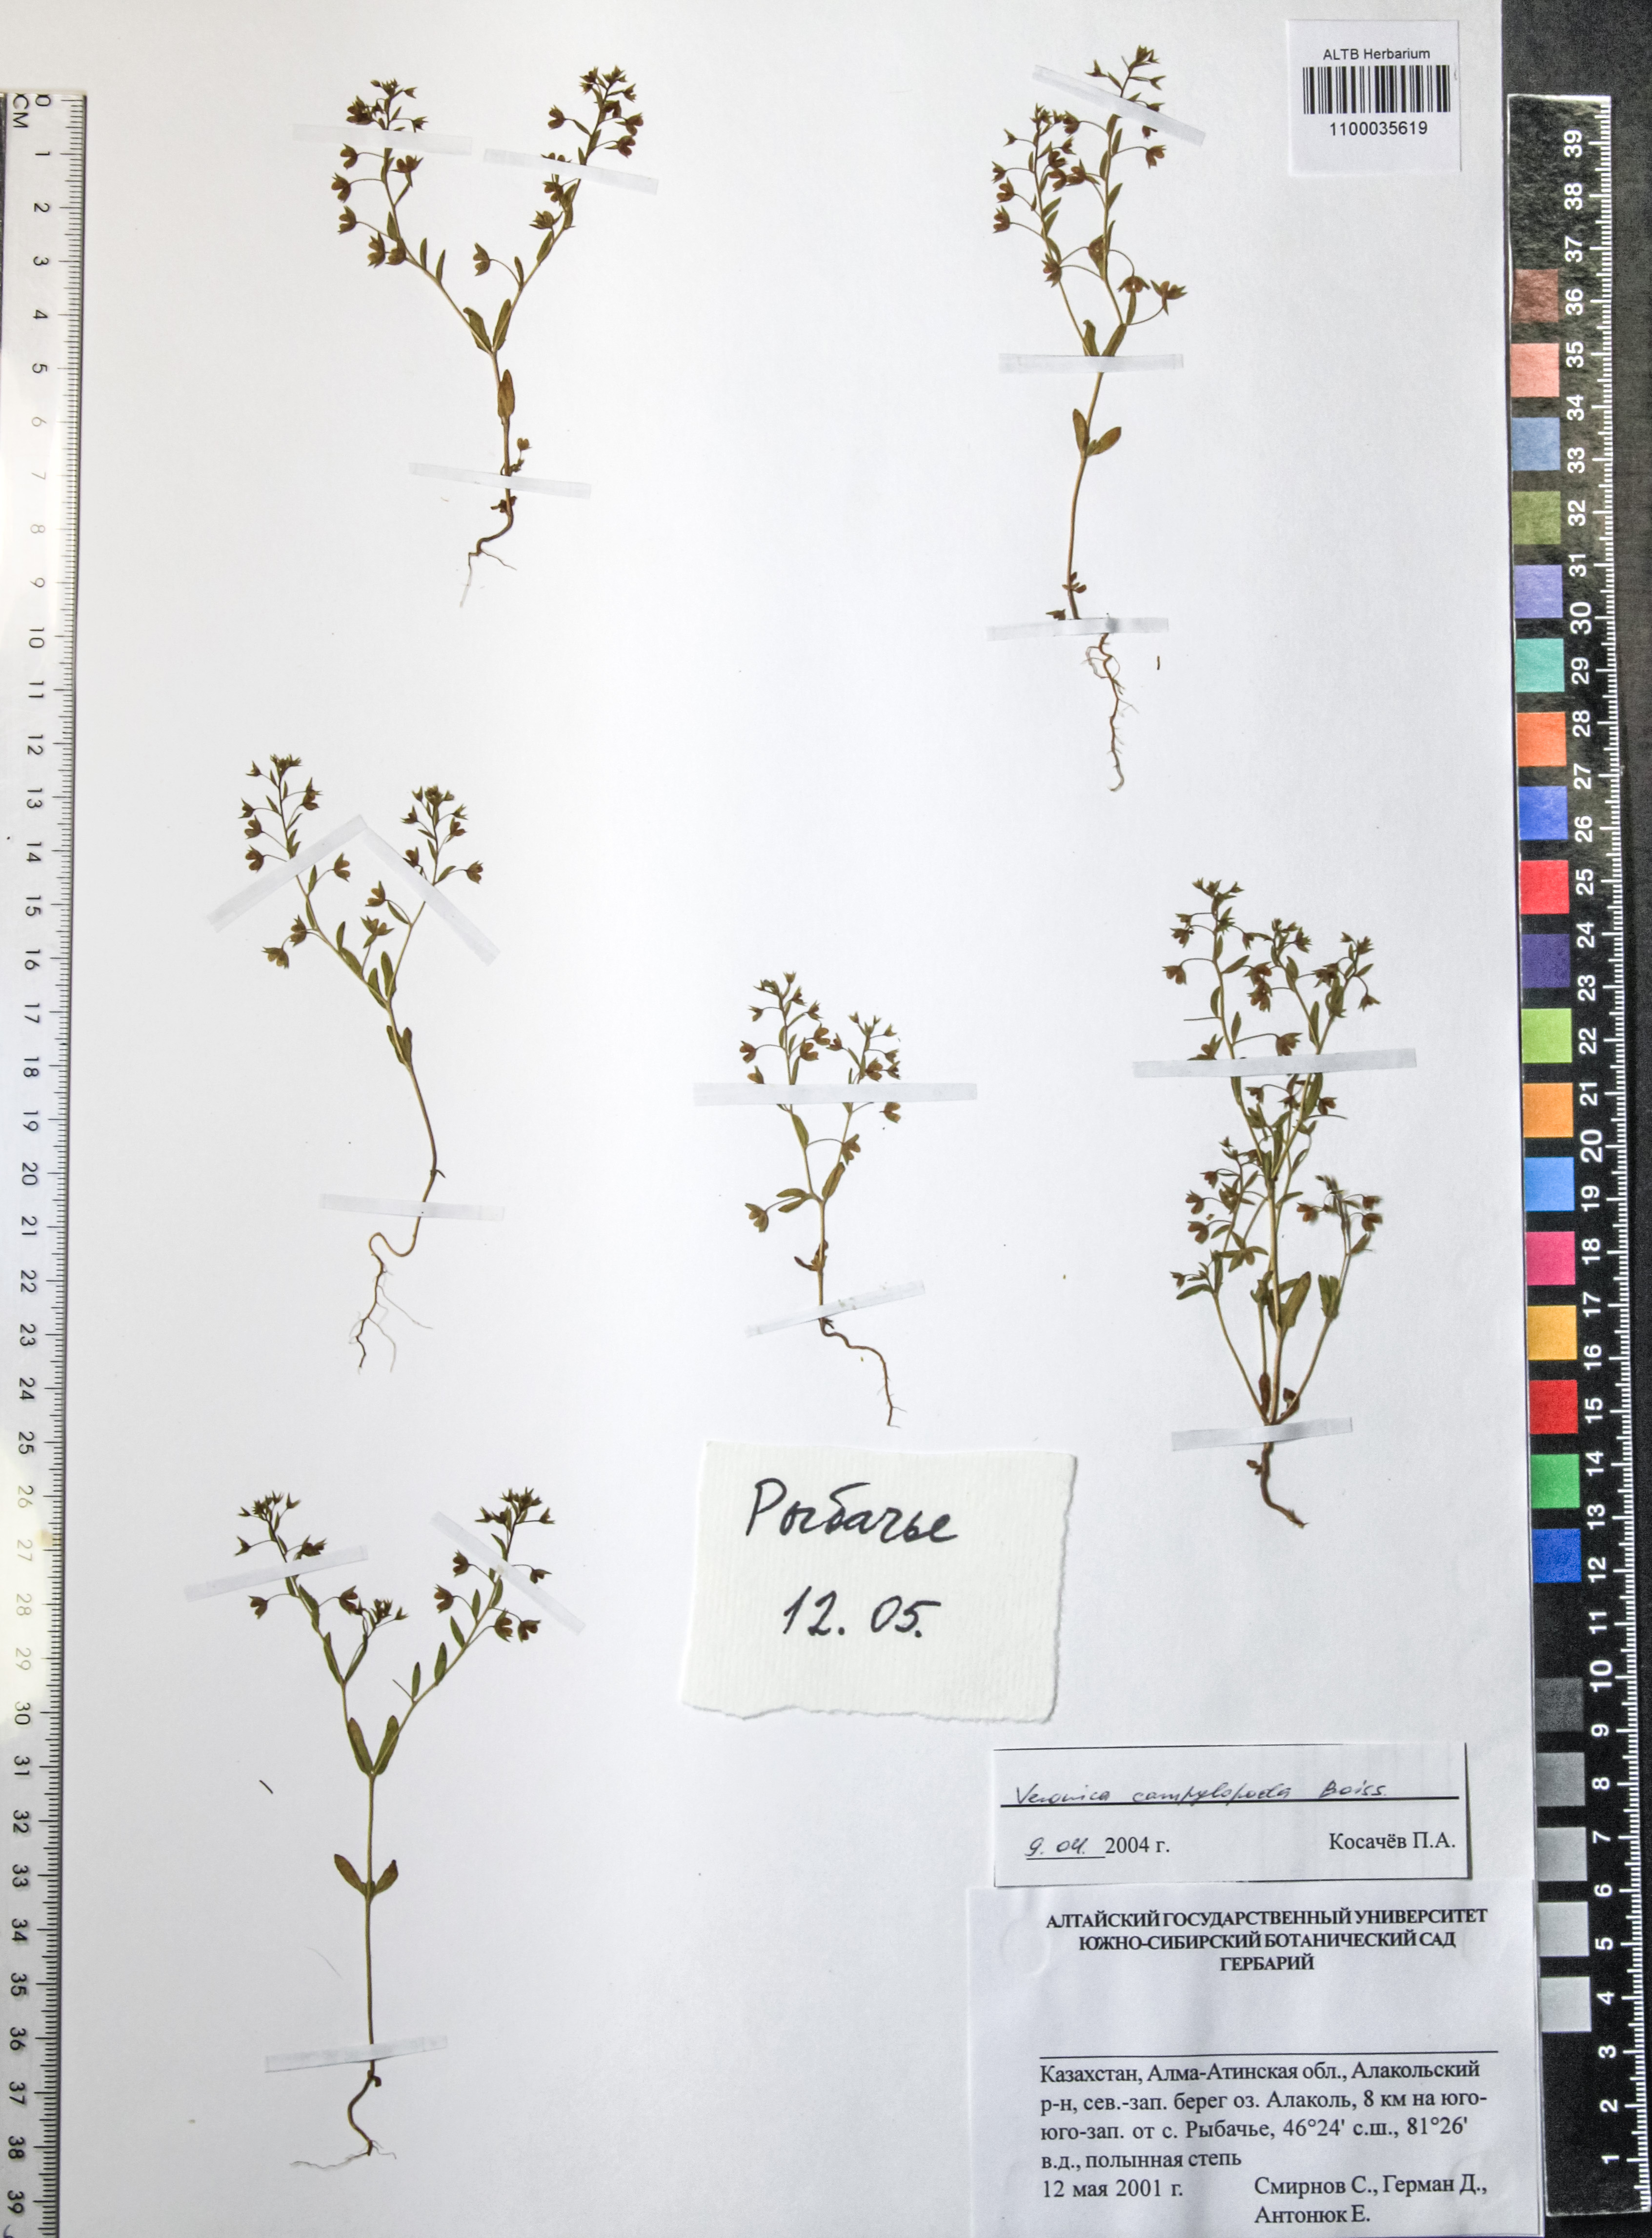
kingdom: Plantae
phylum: Tracheophyta
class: Magnoliopsida
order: Lamiales
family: Plantaginaceae
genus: Veronica
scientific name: Veronica campylopoda
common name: Bent-foot speedwell
